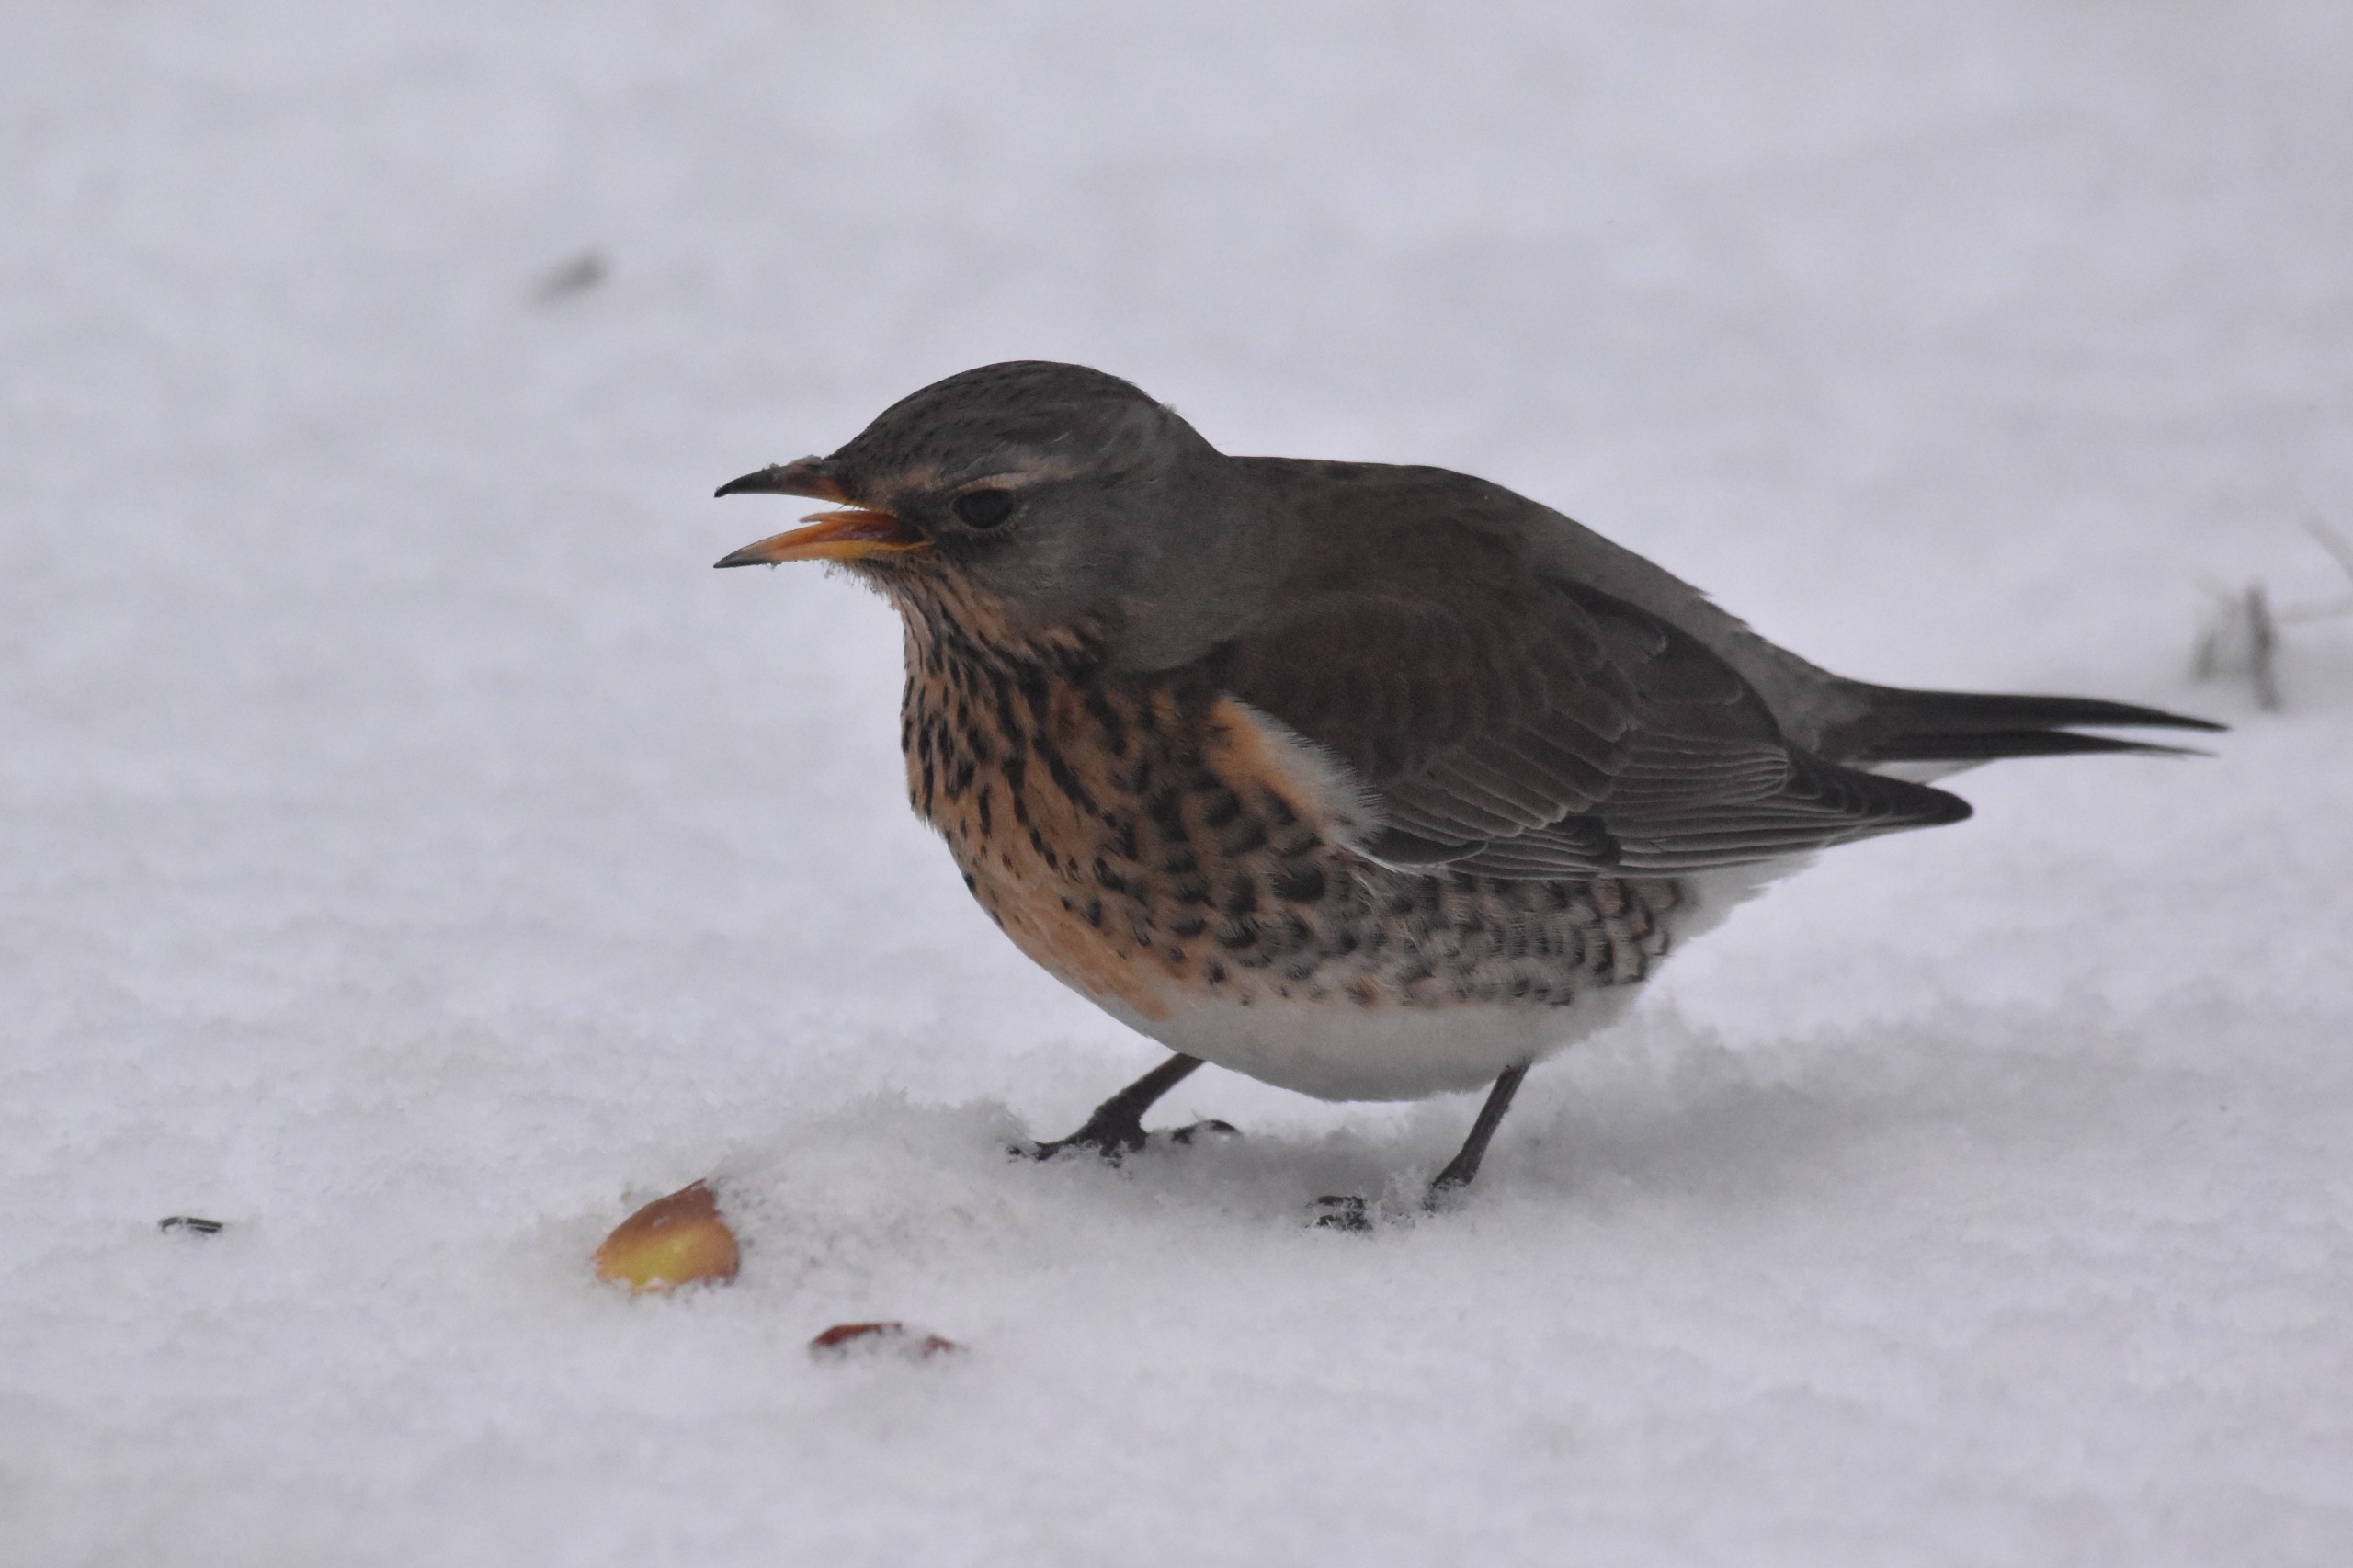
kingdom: Animalia
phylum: Chordata
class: Aves
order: Passeriformes
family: Turdidae
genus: Turdus
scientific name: Turdus pilaris
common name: Sjagger
